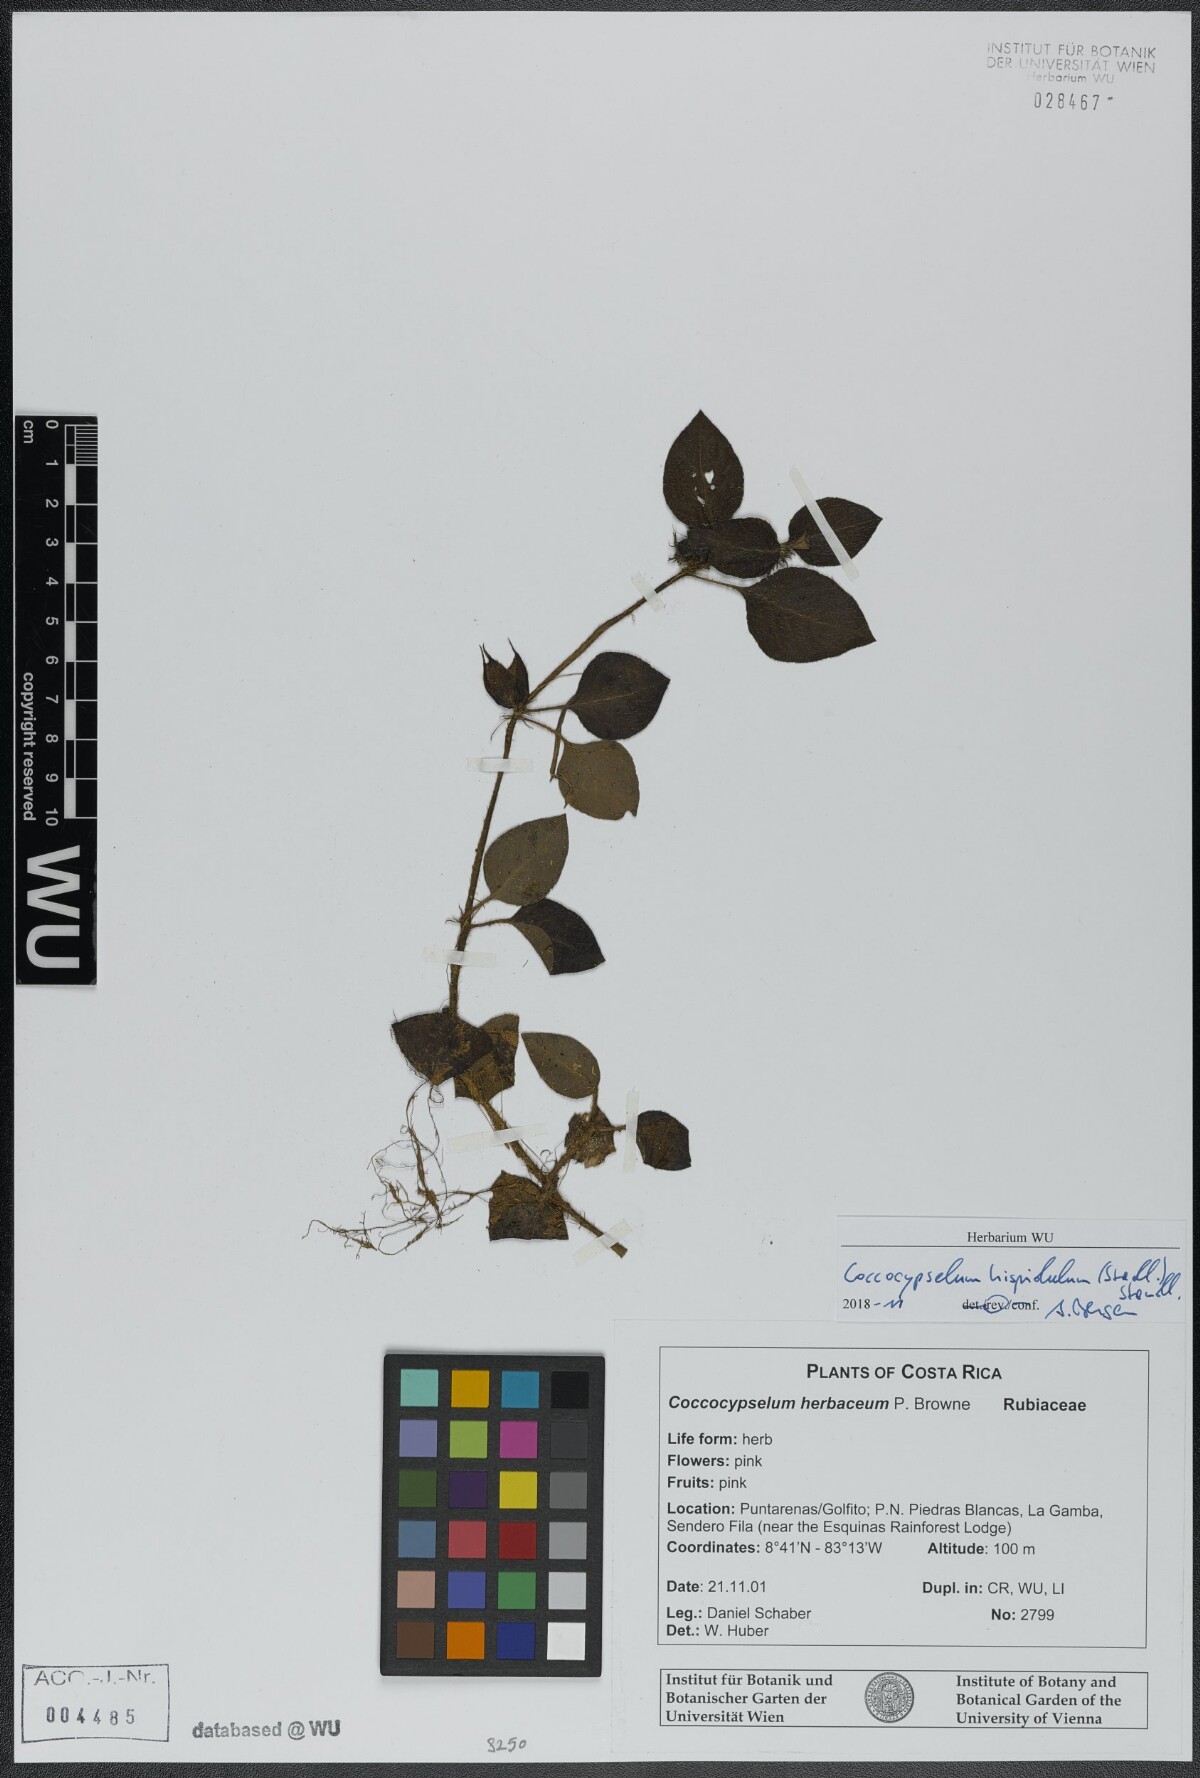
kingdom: Plantae
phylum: Tracheophyta
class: Magnoliopsida
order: Gentianales
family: Rubiaceae
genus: Coccocypselum
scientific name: Coccocypselum hispidulum
